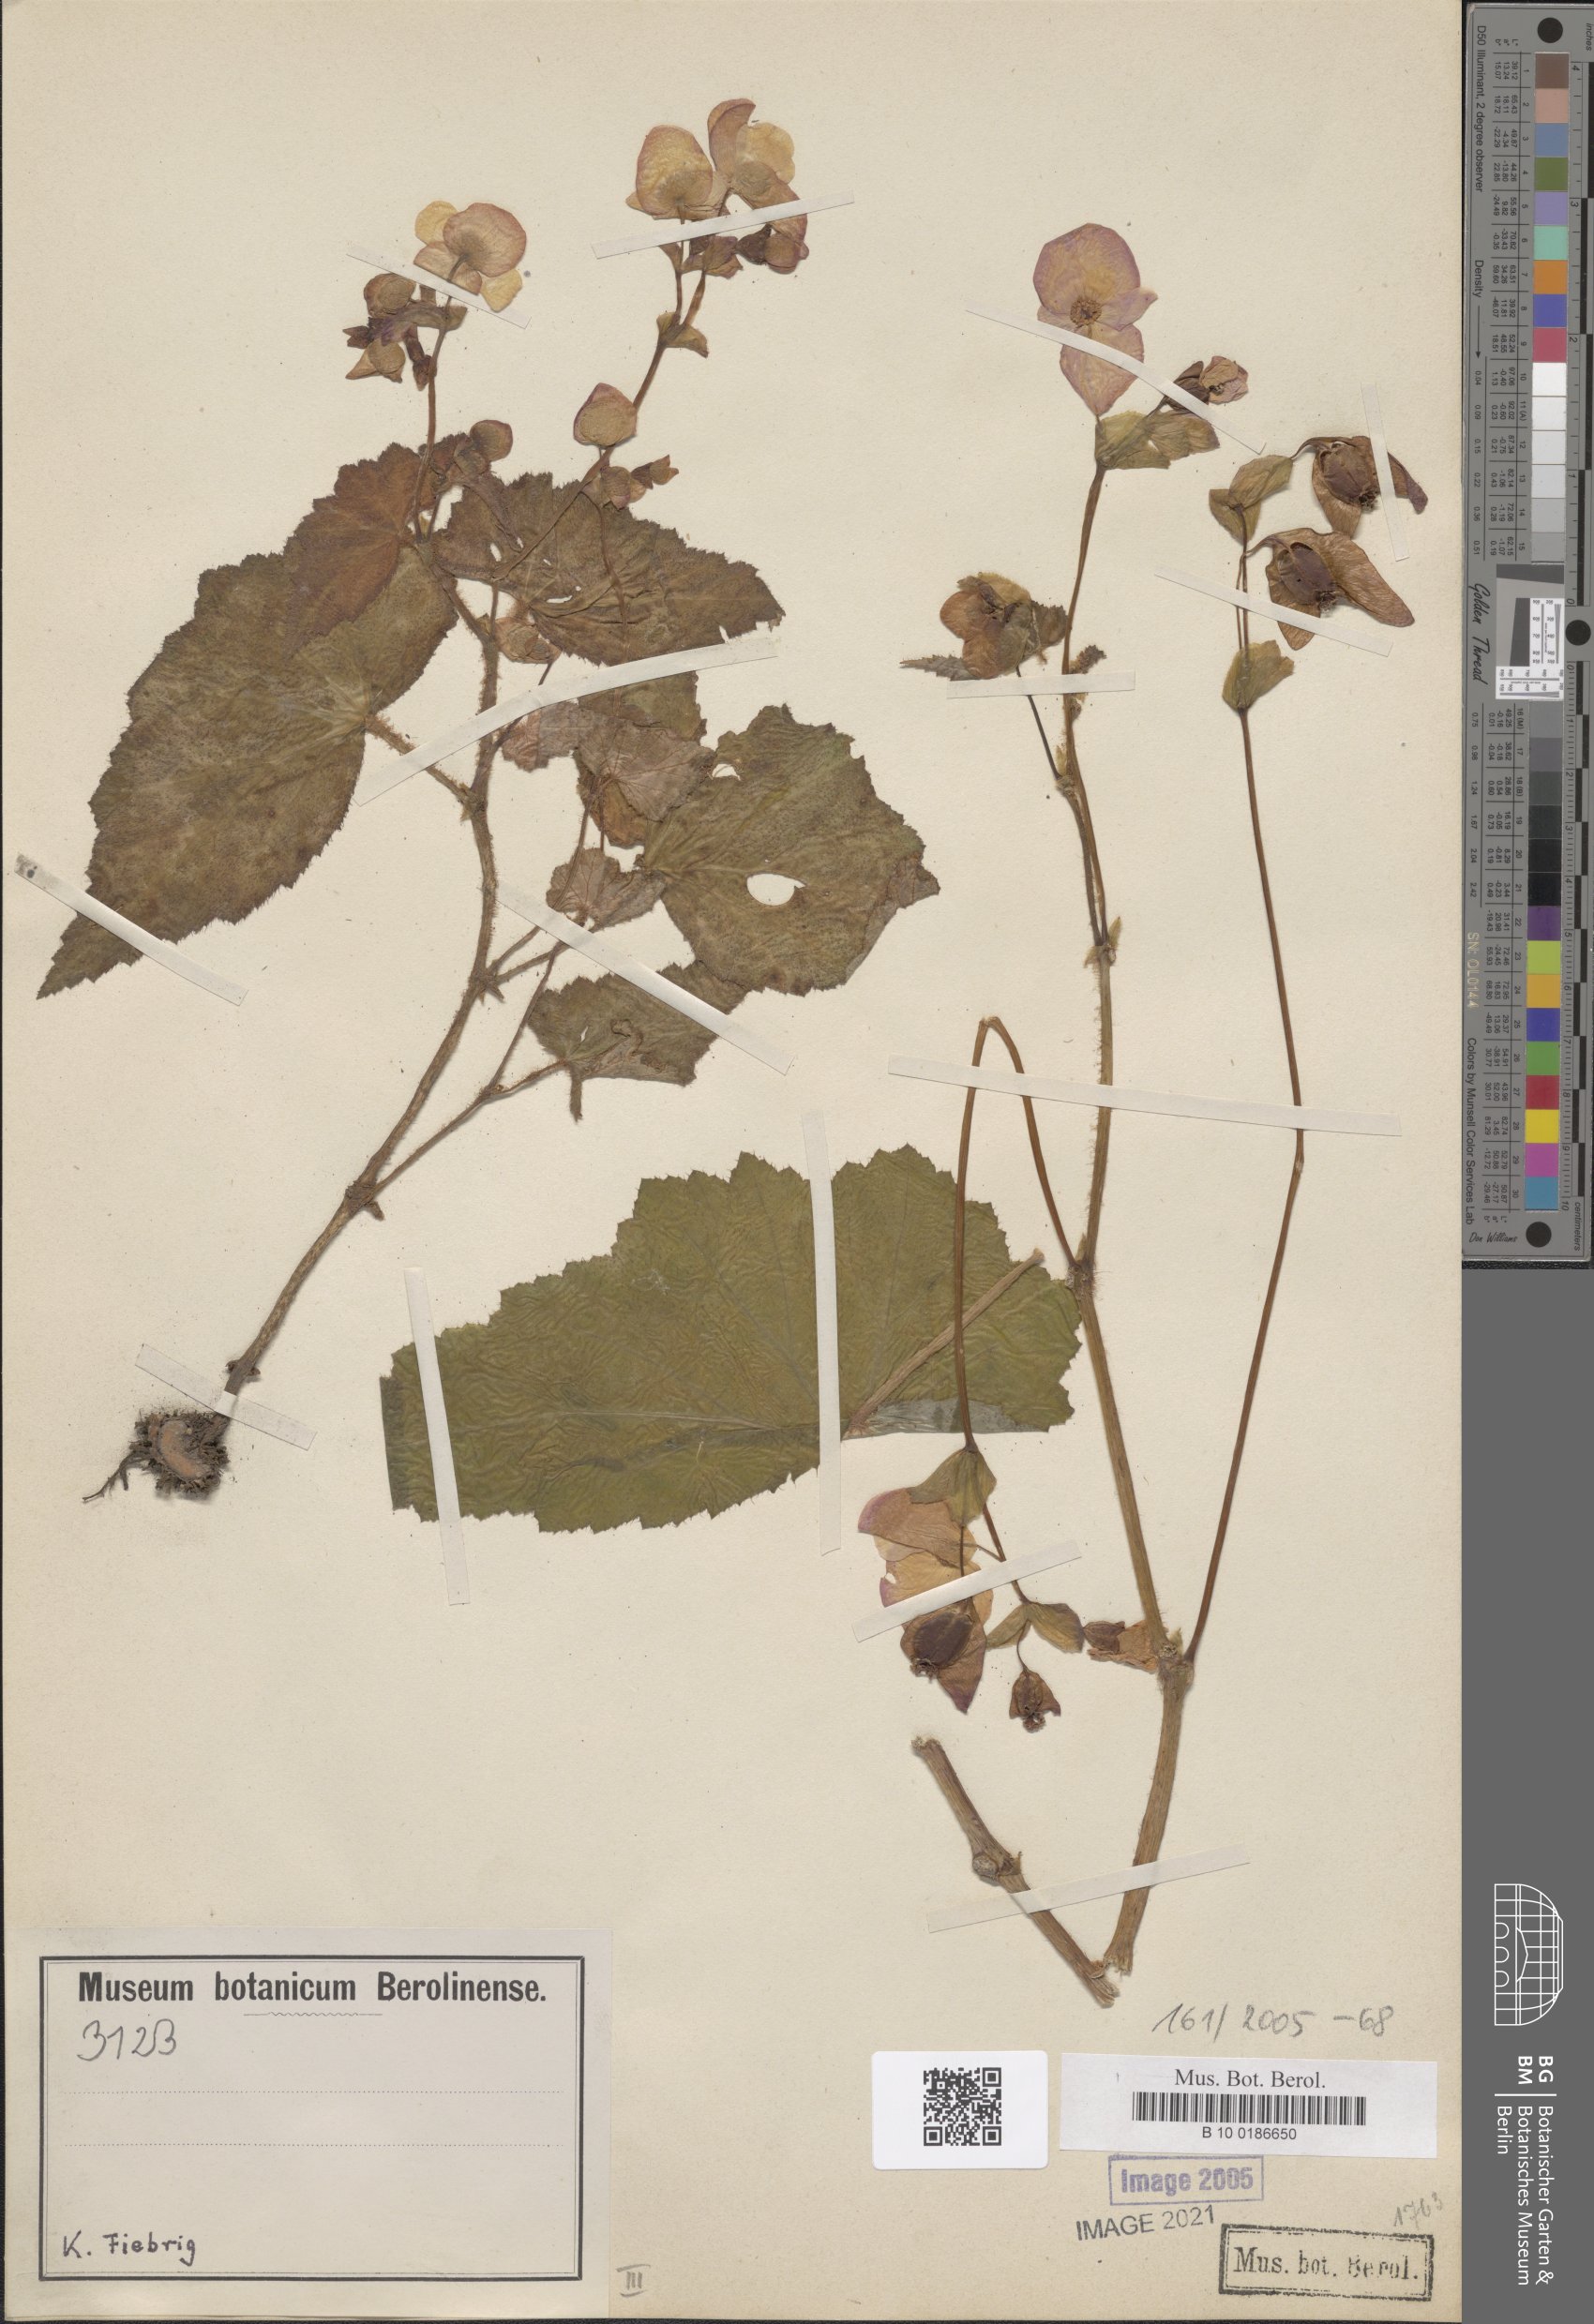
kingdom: Plantae
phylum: Tracheophyta
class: Magnoliopsida
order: Cucurbitales
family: Begoniaceae
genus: Begonia
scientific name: Begonia micranthera
